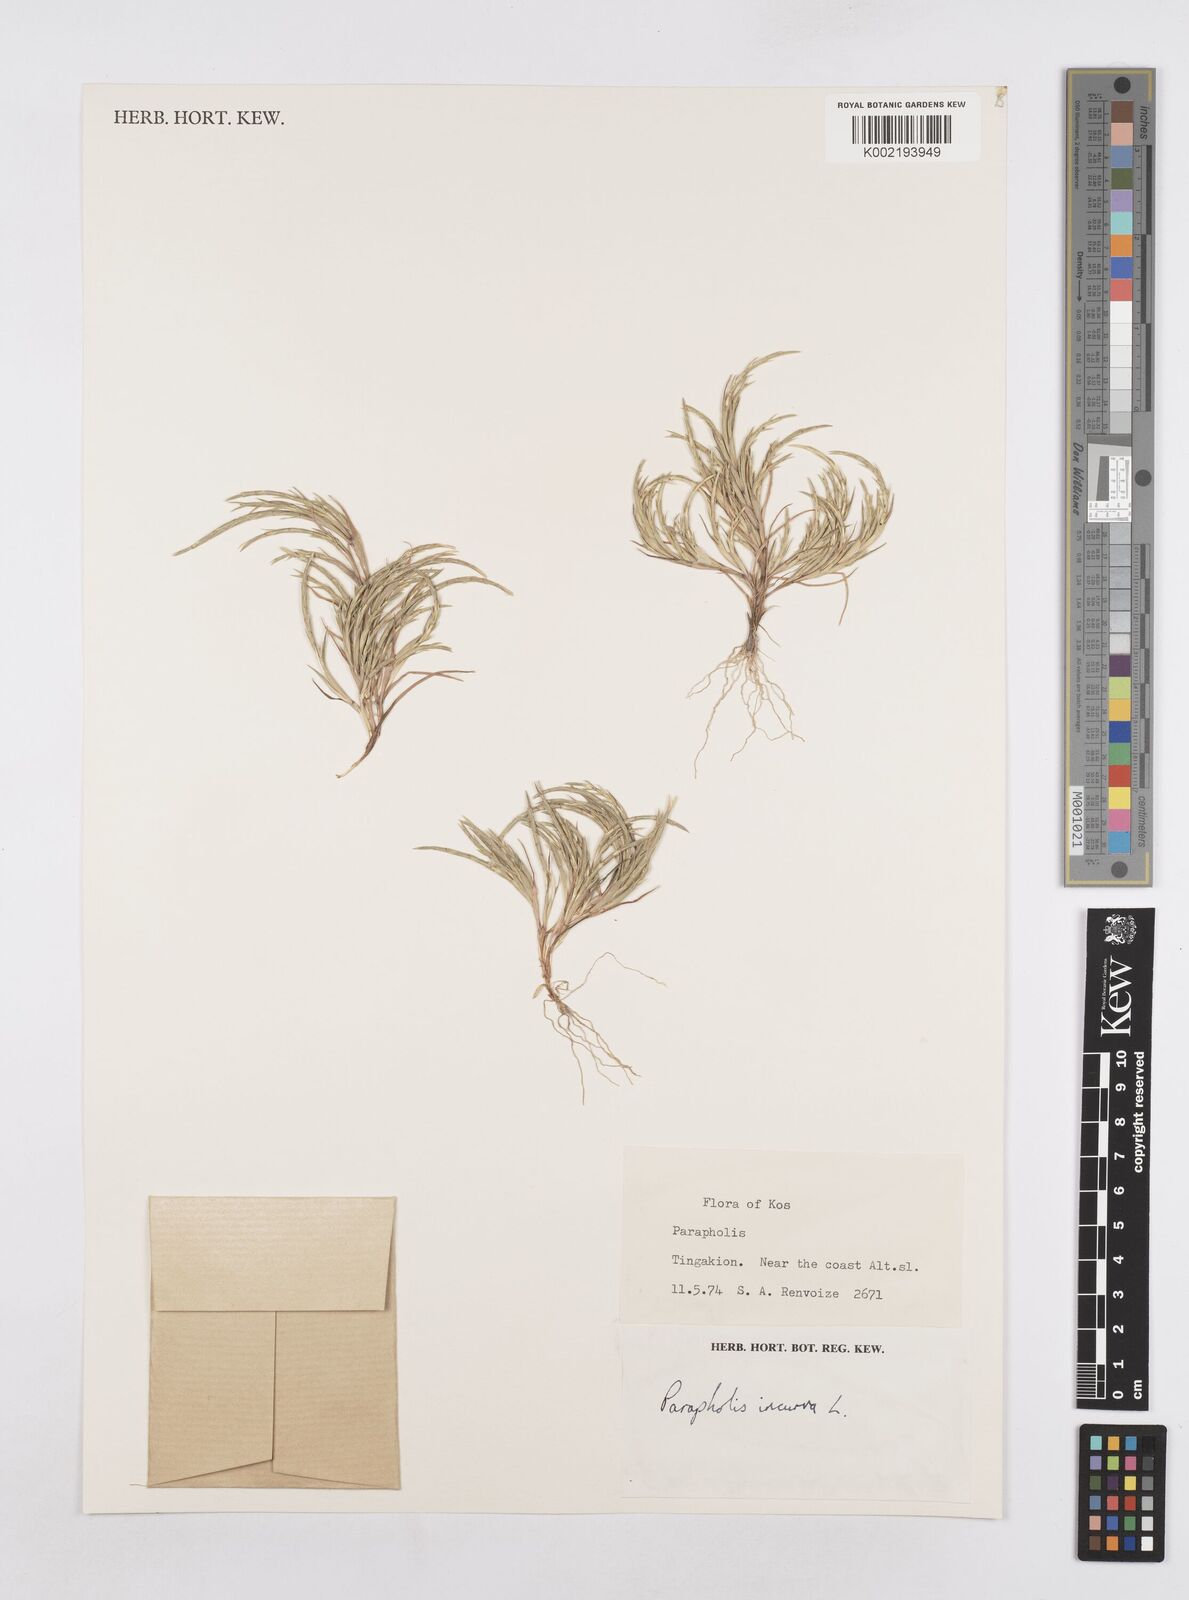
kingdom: Plantae
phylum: Tracheophyta
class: Liliopsida
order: Poales
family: Poaceae
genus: Parapholis
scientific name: Parapholis incurva
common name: Curved sicklegrass
